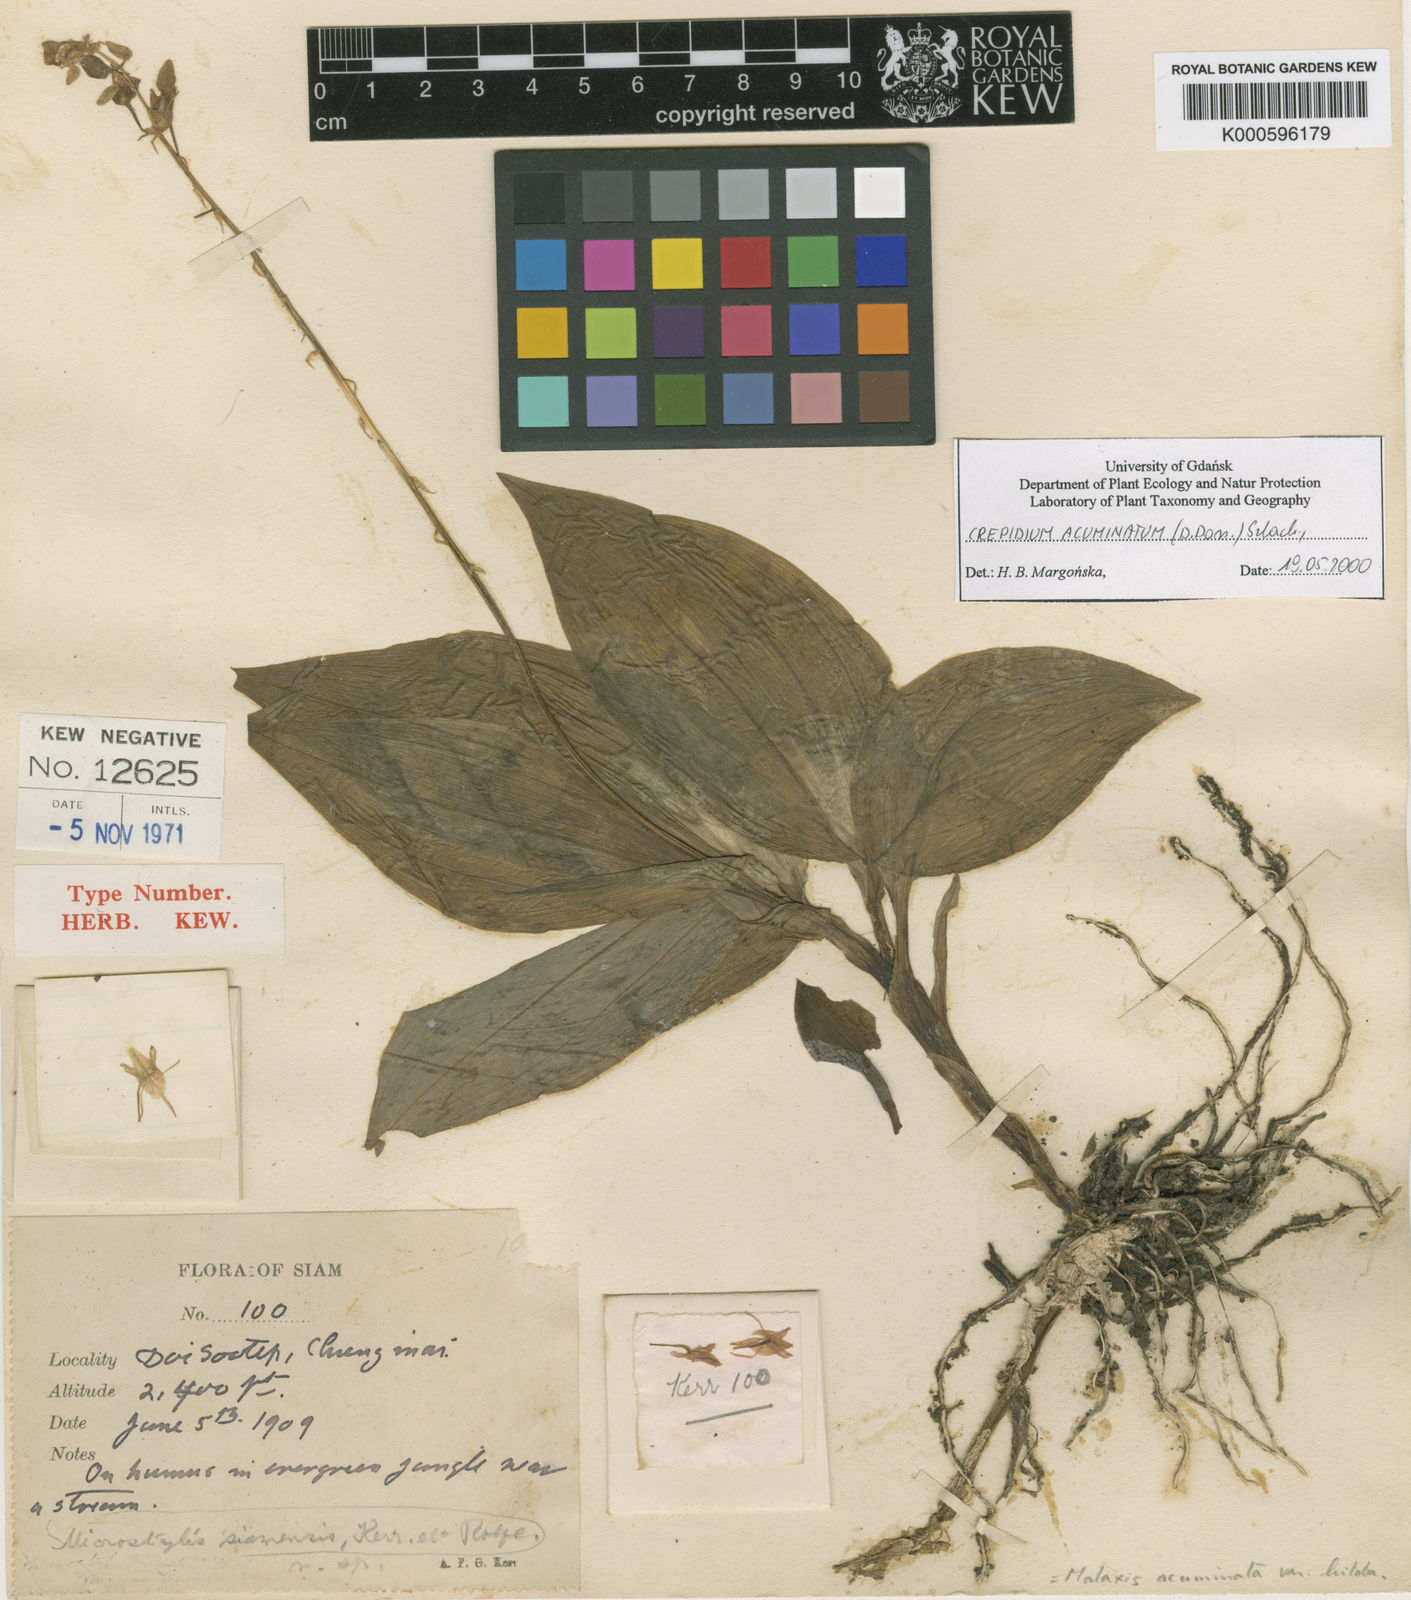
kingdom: Plantae
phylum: Tracheophyta
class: Liliopsida
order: Asparagales
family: Orchidaceae
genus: Crepidium
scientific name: Crepidium acuminatum
